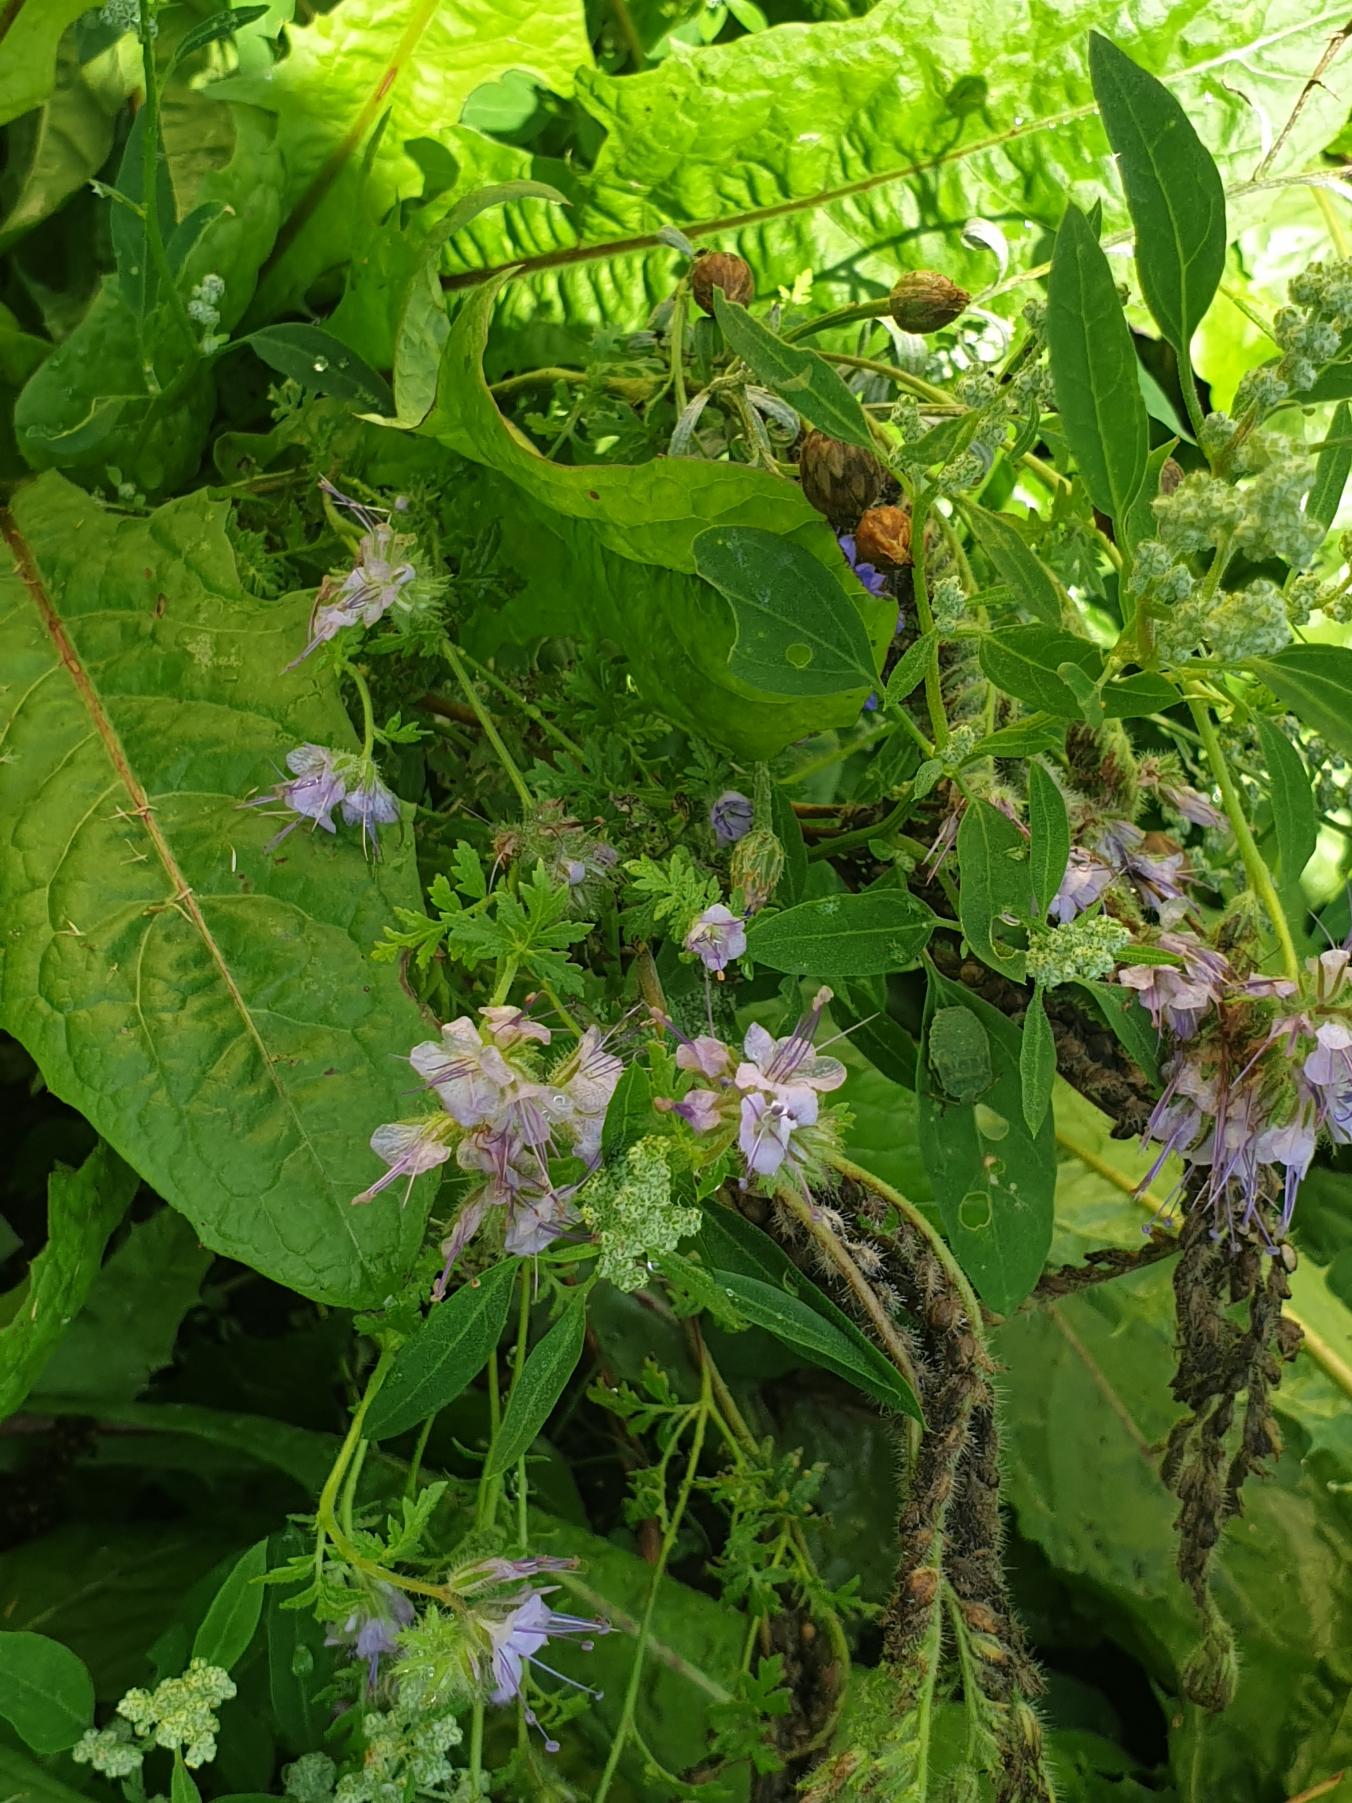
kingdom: Plantae
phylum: Tracheophyta
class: Magnoliopsida
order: Boraginales
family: Hydrophyllaceae
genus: Phacelia
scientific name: Phacelia tanacetifolia
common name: Honningurt
